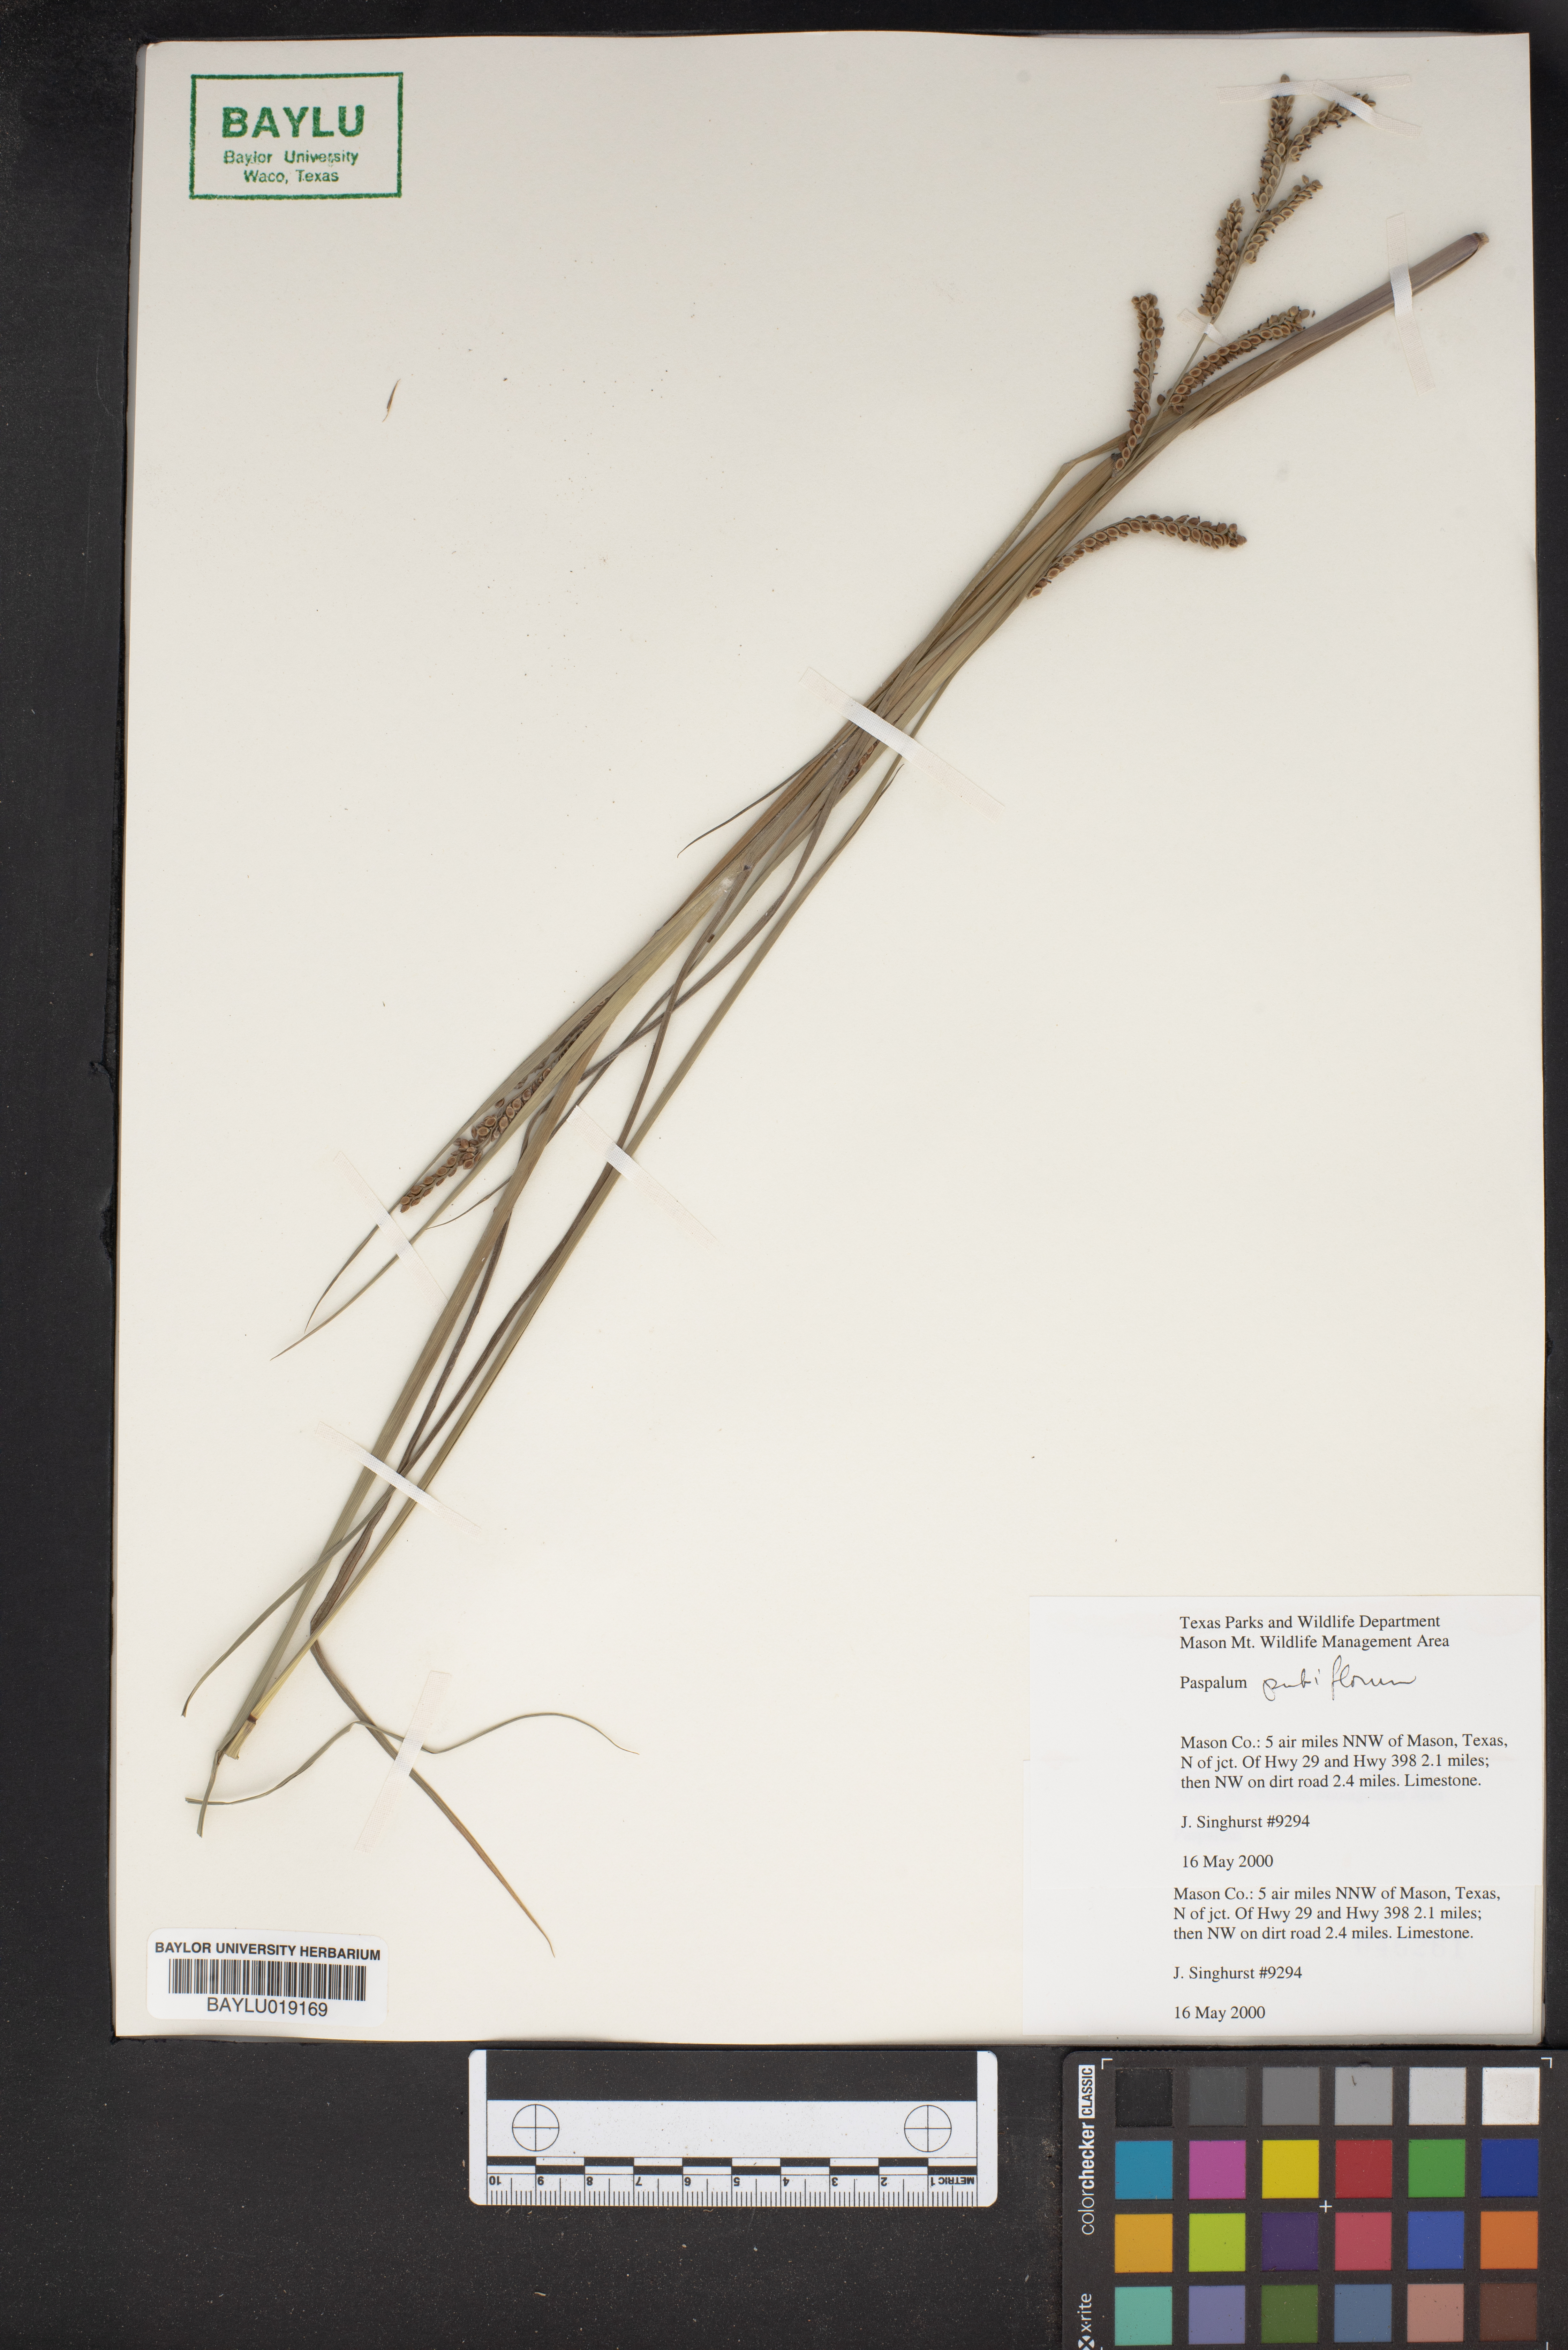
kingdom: Plantae
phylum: Tracheophyta
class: Liliopsida
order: Poales
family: Poaceae
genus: Paspalum
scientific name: Paspalum
